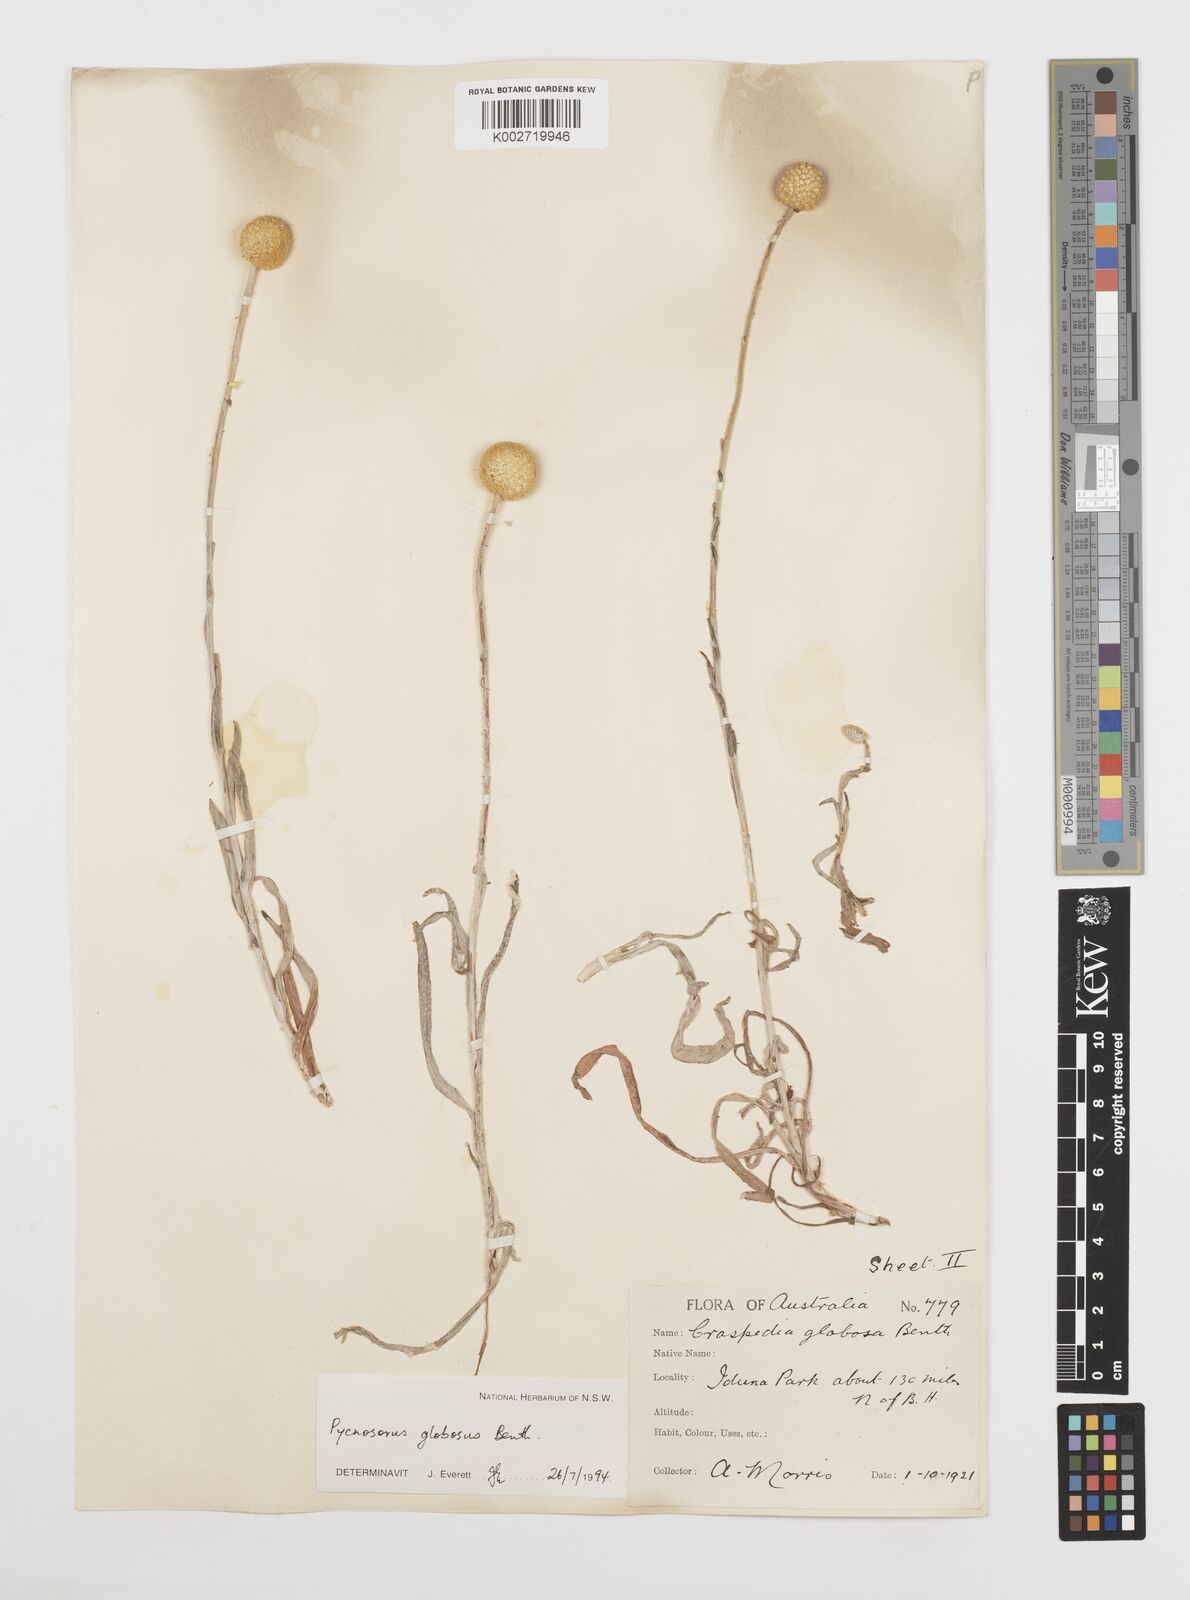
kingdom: Plantae
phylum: Tracheophyta
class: Magnoliopsida
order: Asterales
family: Asteraceae
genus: Pycnosorus
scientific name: Pycnosorus globosus
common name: Drumsticks
